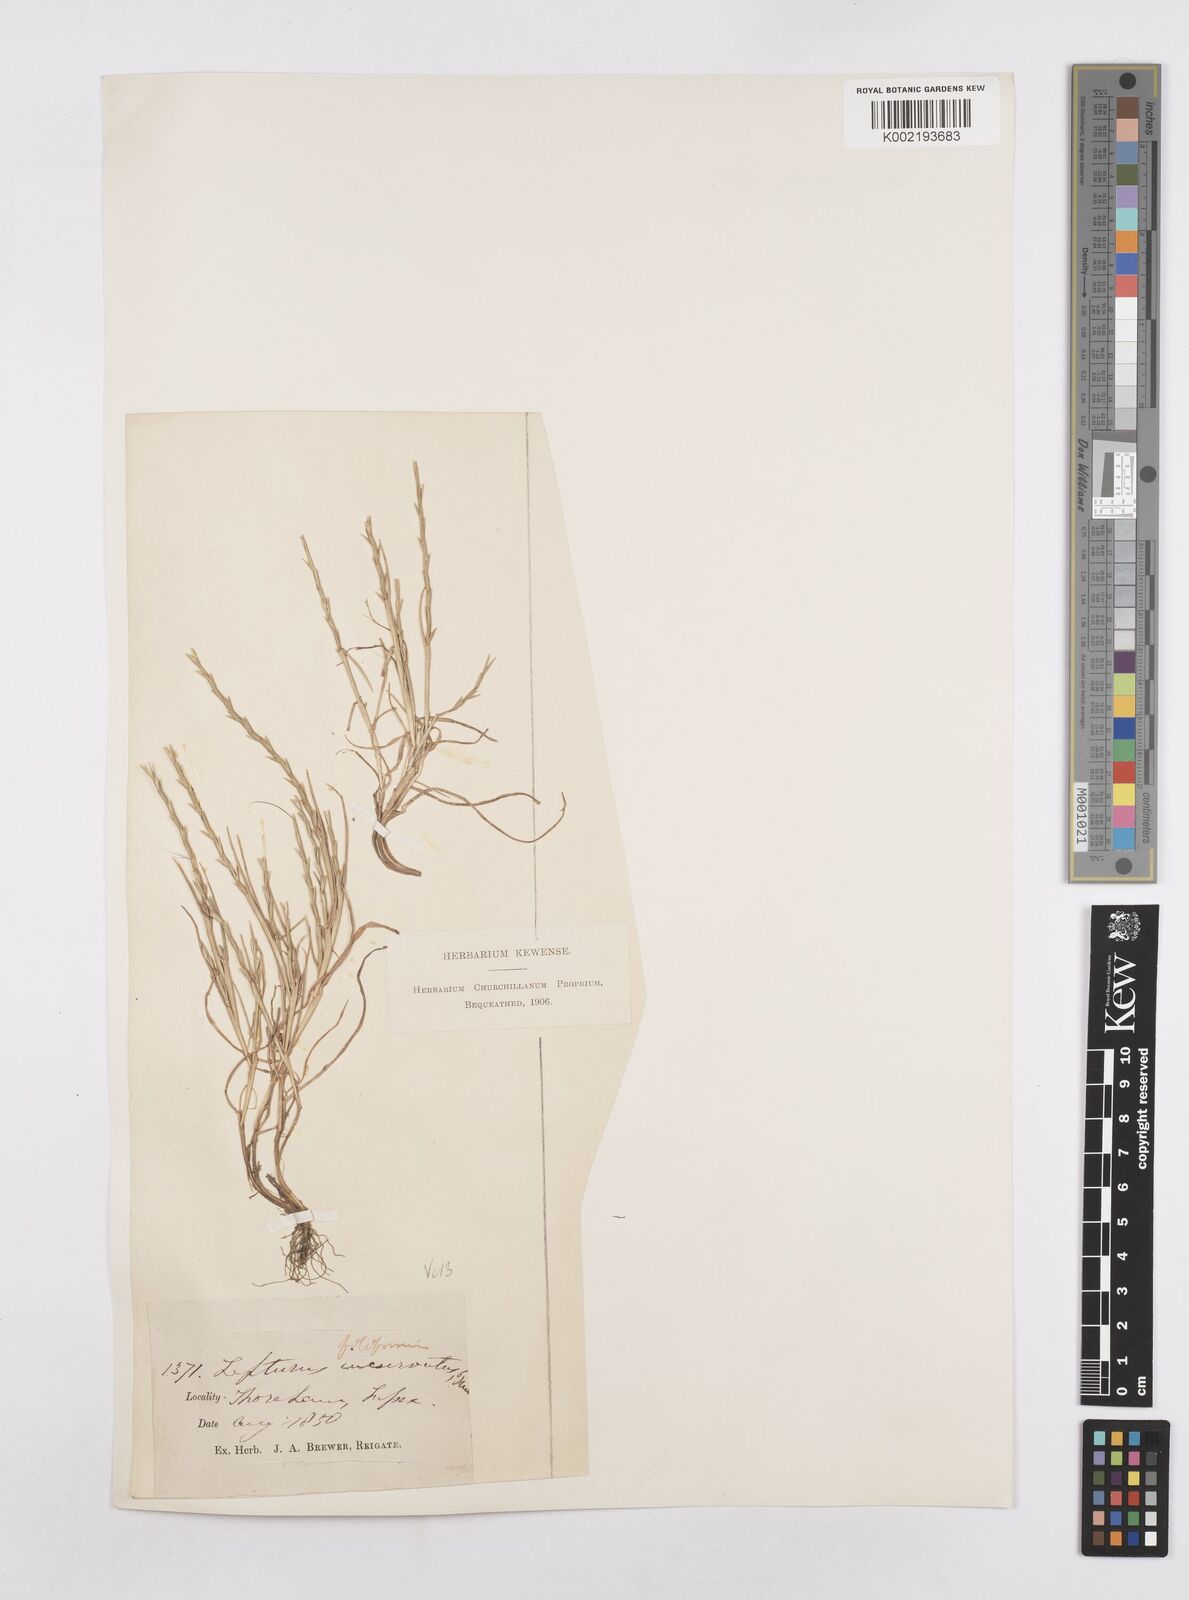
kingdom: Plantae
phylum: Tracheophyta
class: Liliopsida
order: Poales
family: Poaceae
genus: Parapholis
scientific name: Parapholis strigosa
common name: Hard-grass
